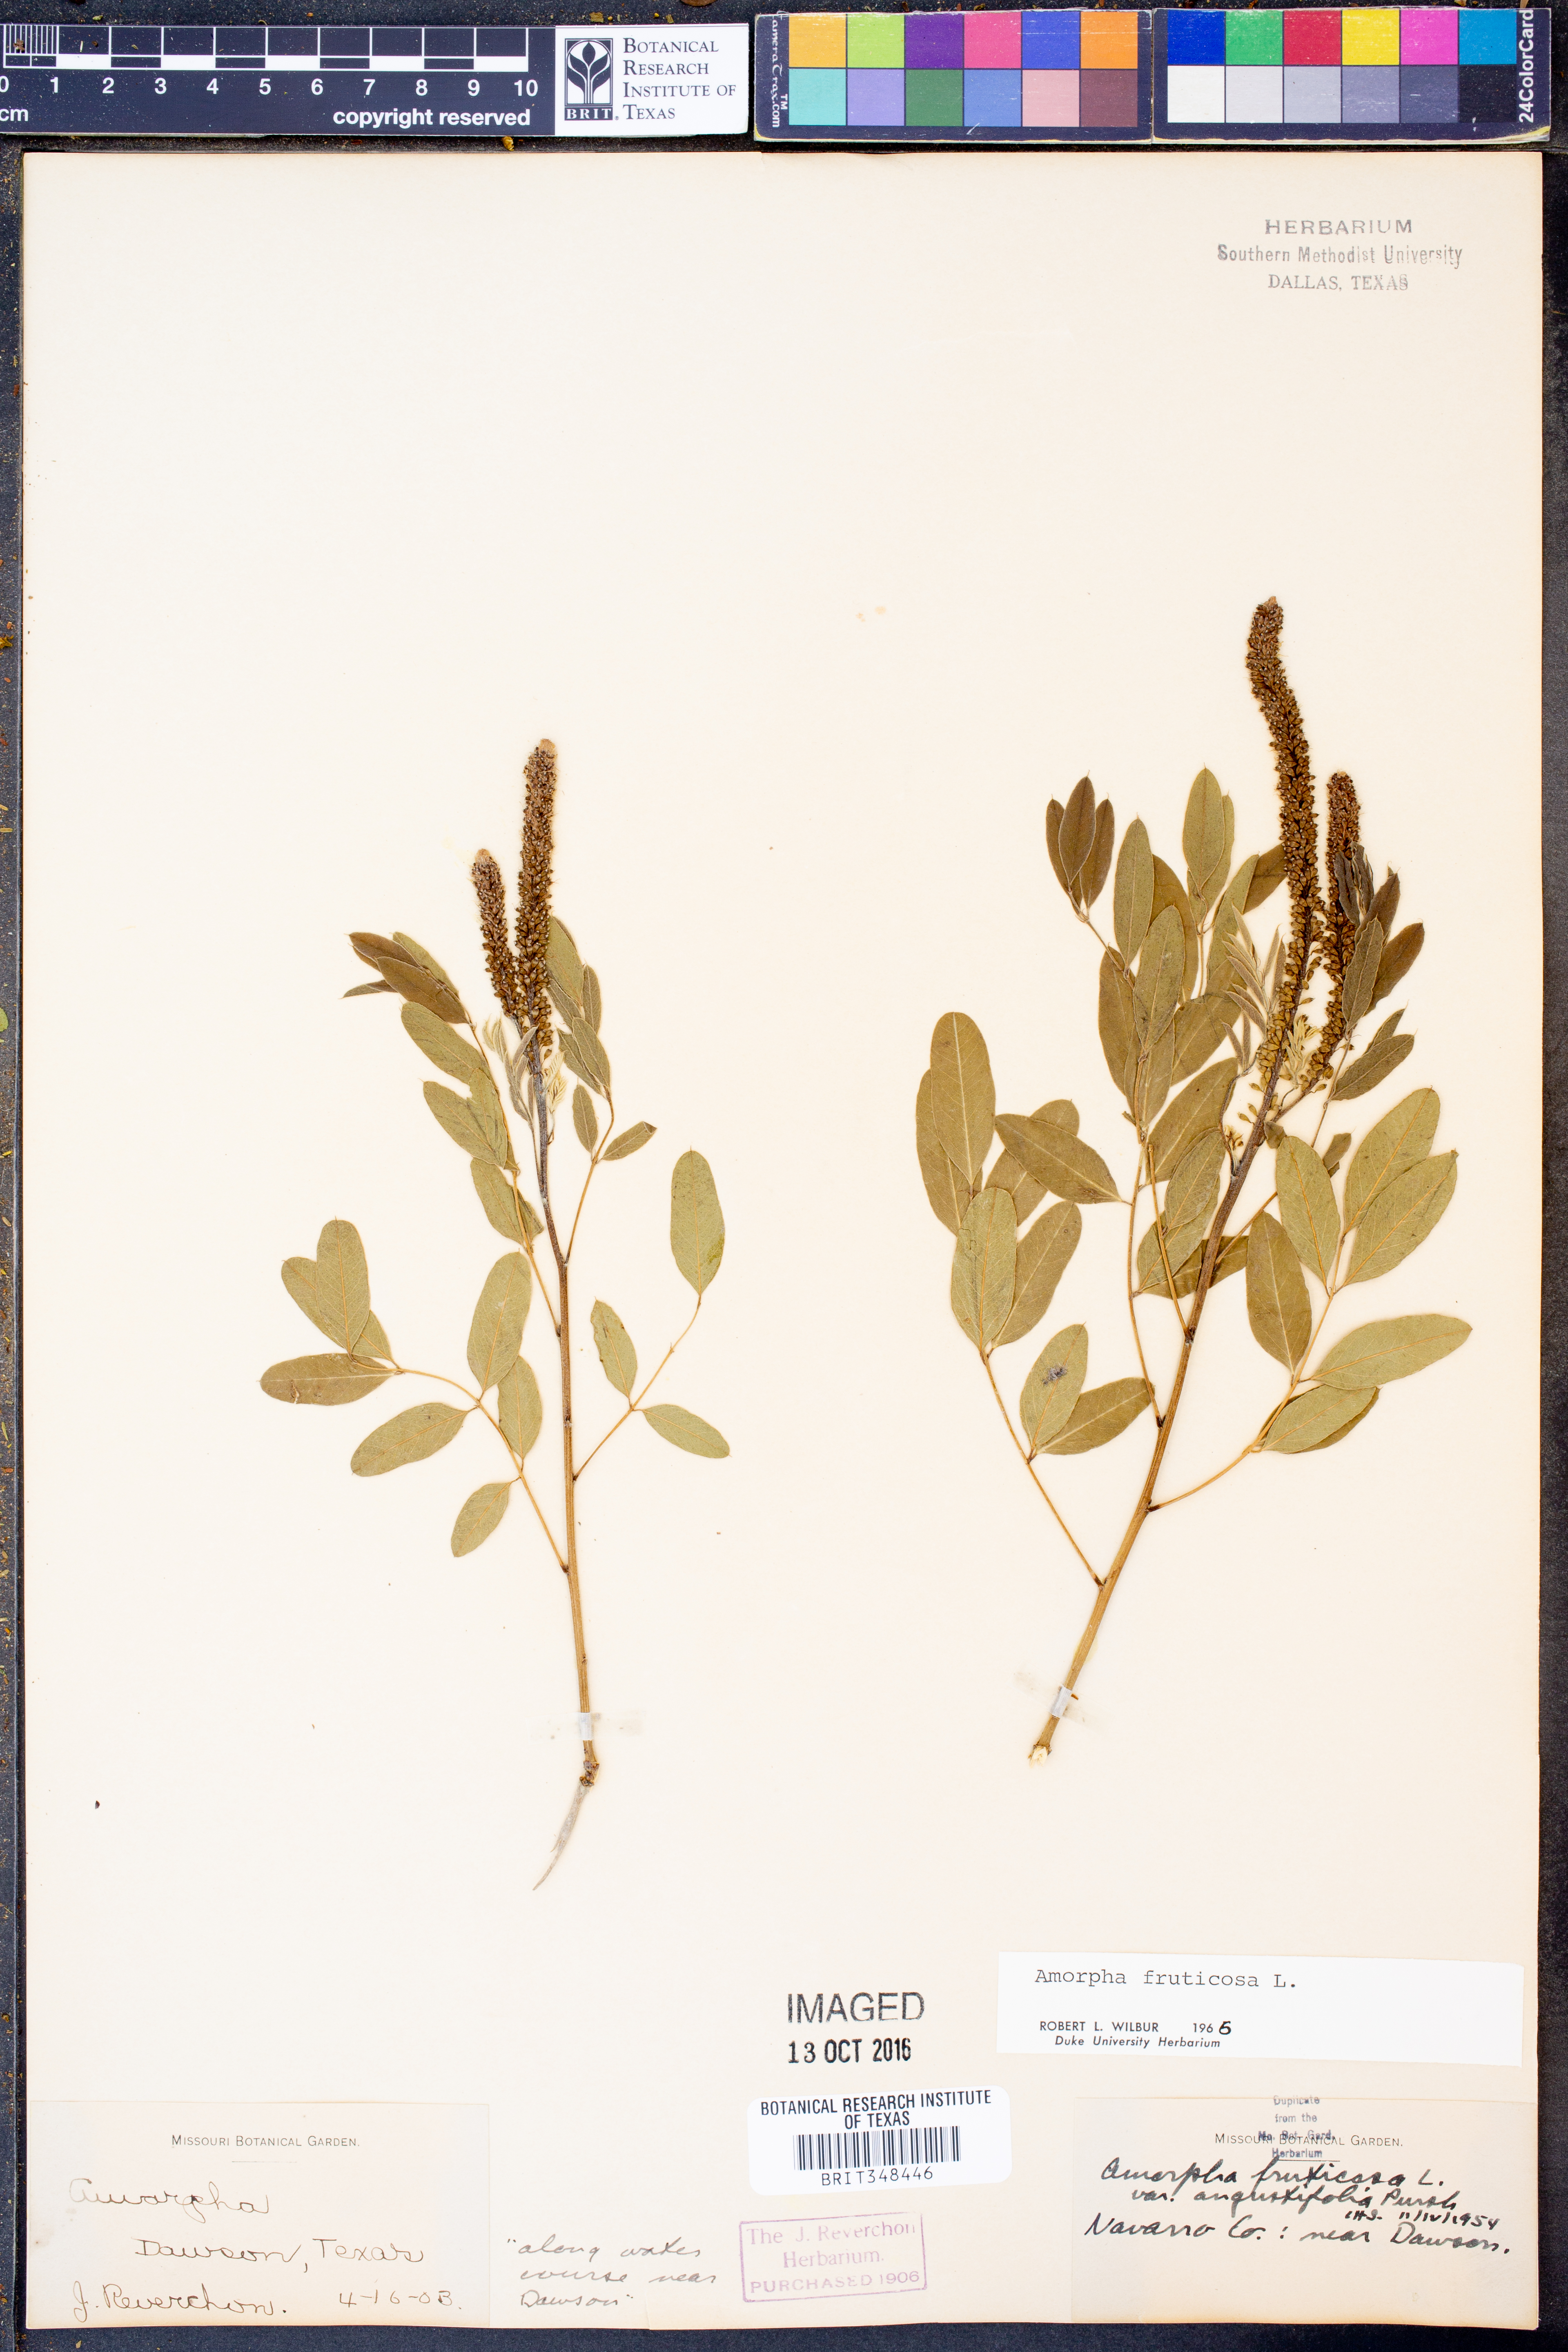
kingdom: Plantae
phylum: Tracheophyta
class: Magnoliopsida
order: Fabales
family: Fabaceae
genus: Amorpha
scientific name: Amorpha fruticosa
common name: False indigo
